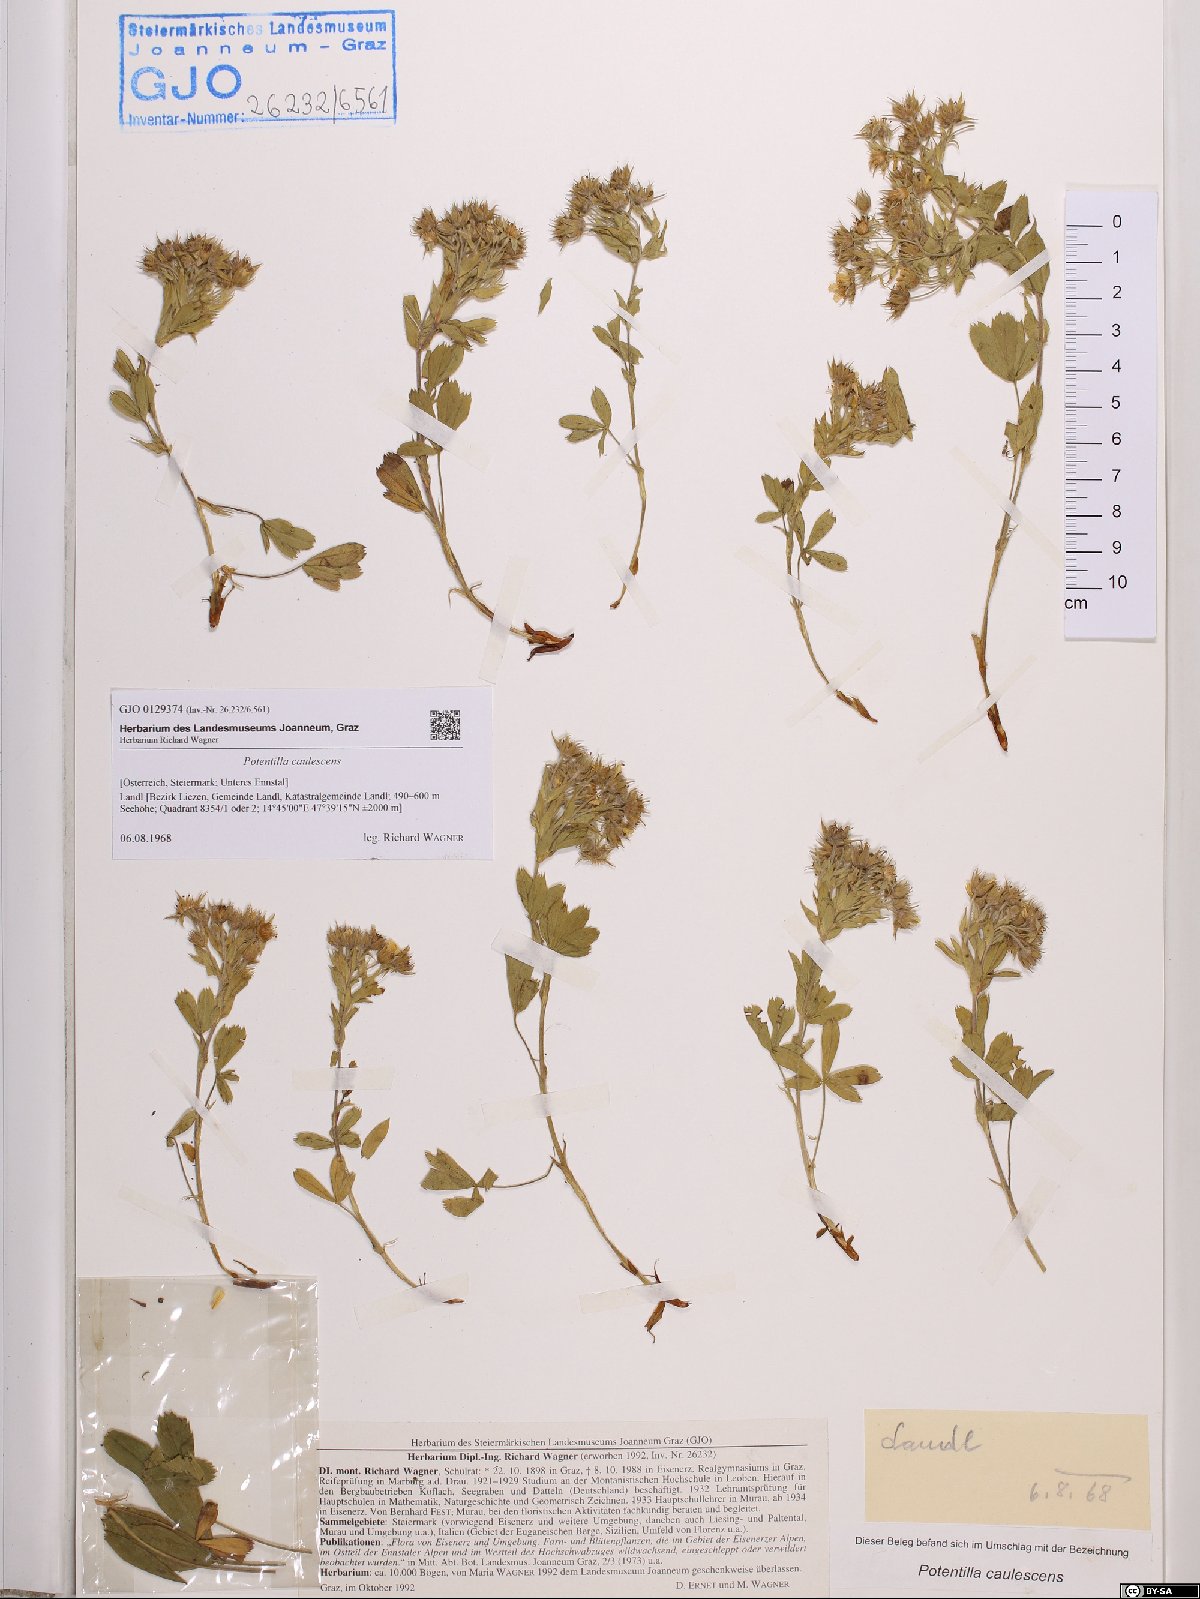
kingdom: Plantae
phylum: Tracheophyta
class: Magnoliopsida
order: Rosales
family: Rosaceae
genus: Potentilla
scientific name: Potentilla caulescens
